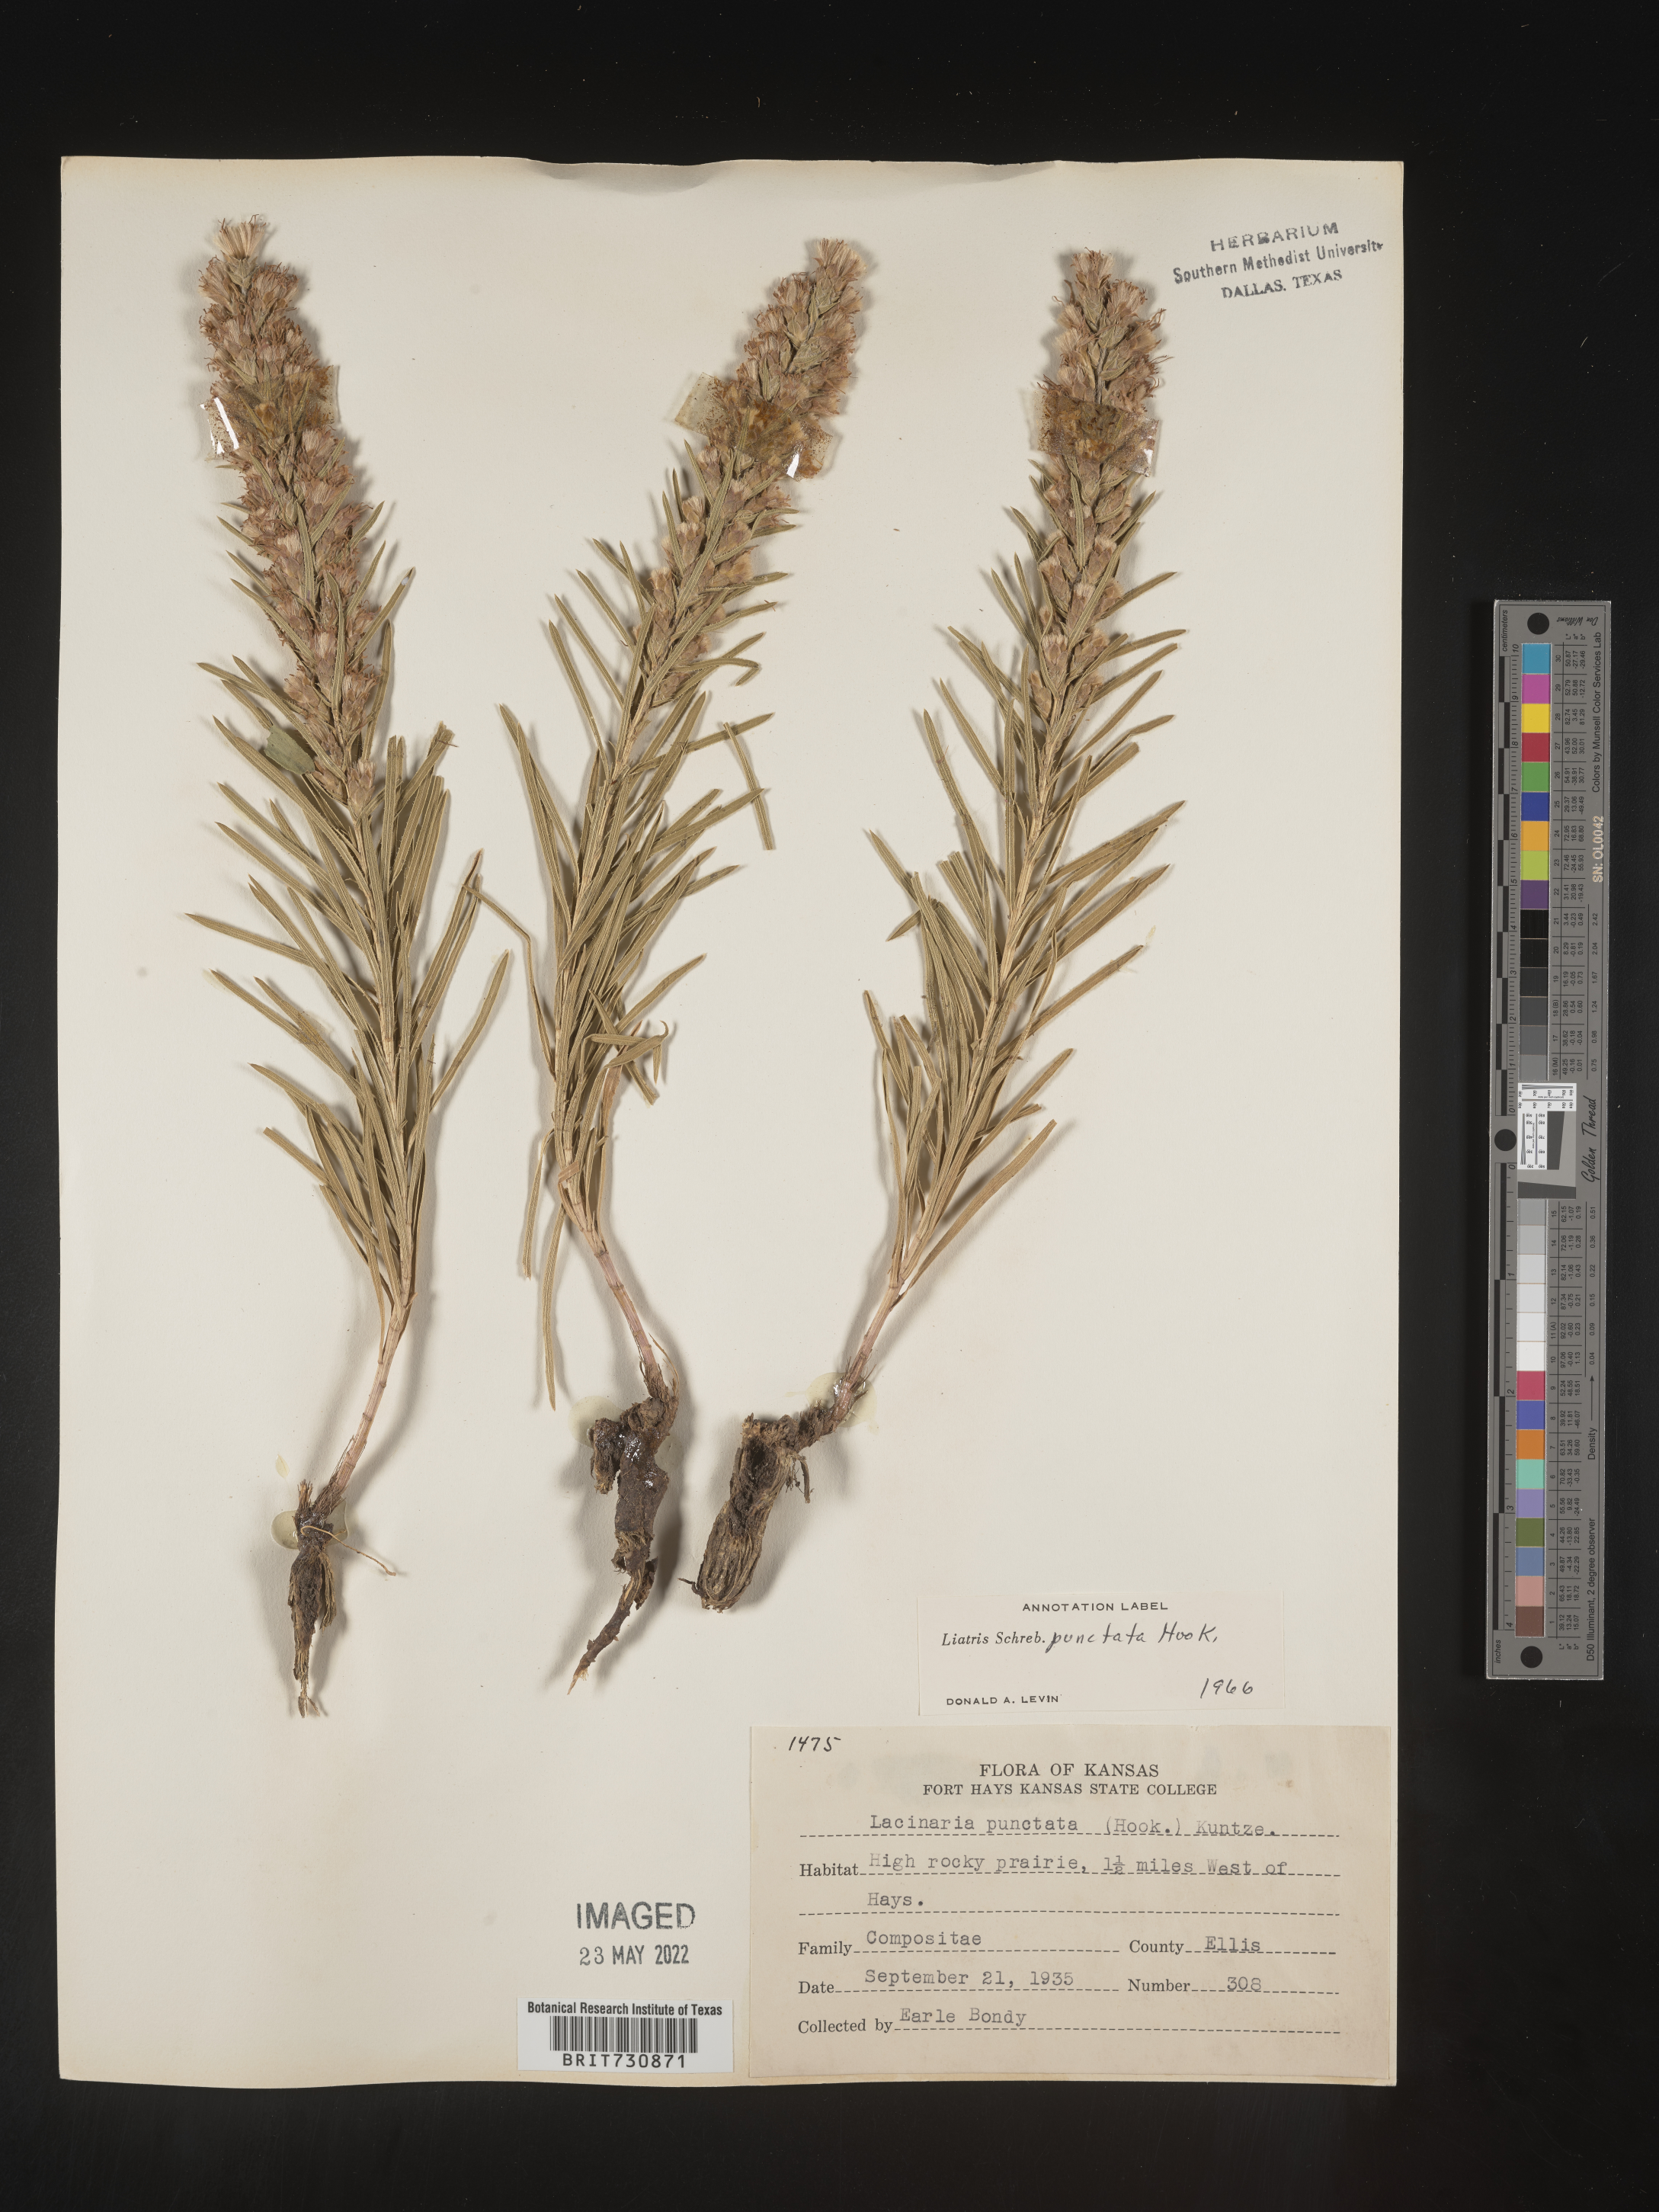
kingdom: Plantae
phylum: Tracheophyta
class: Magnoliopsida
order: Asterales
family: Asteraceae
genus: Liatris
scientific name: Liatris punctata
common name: Dotted gayfeather
